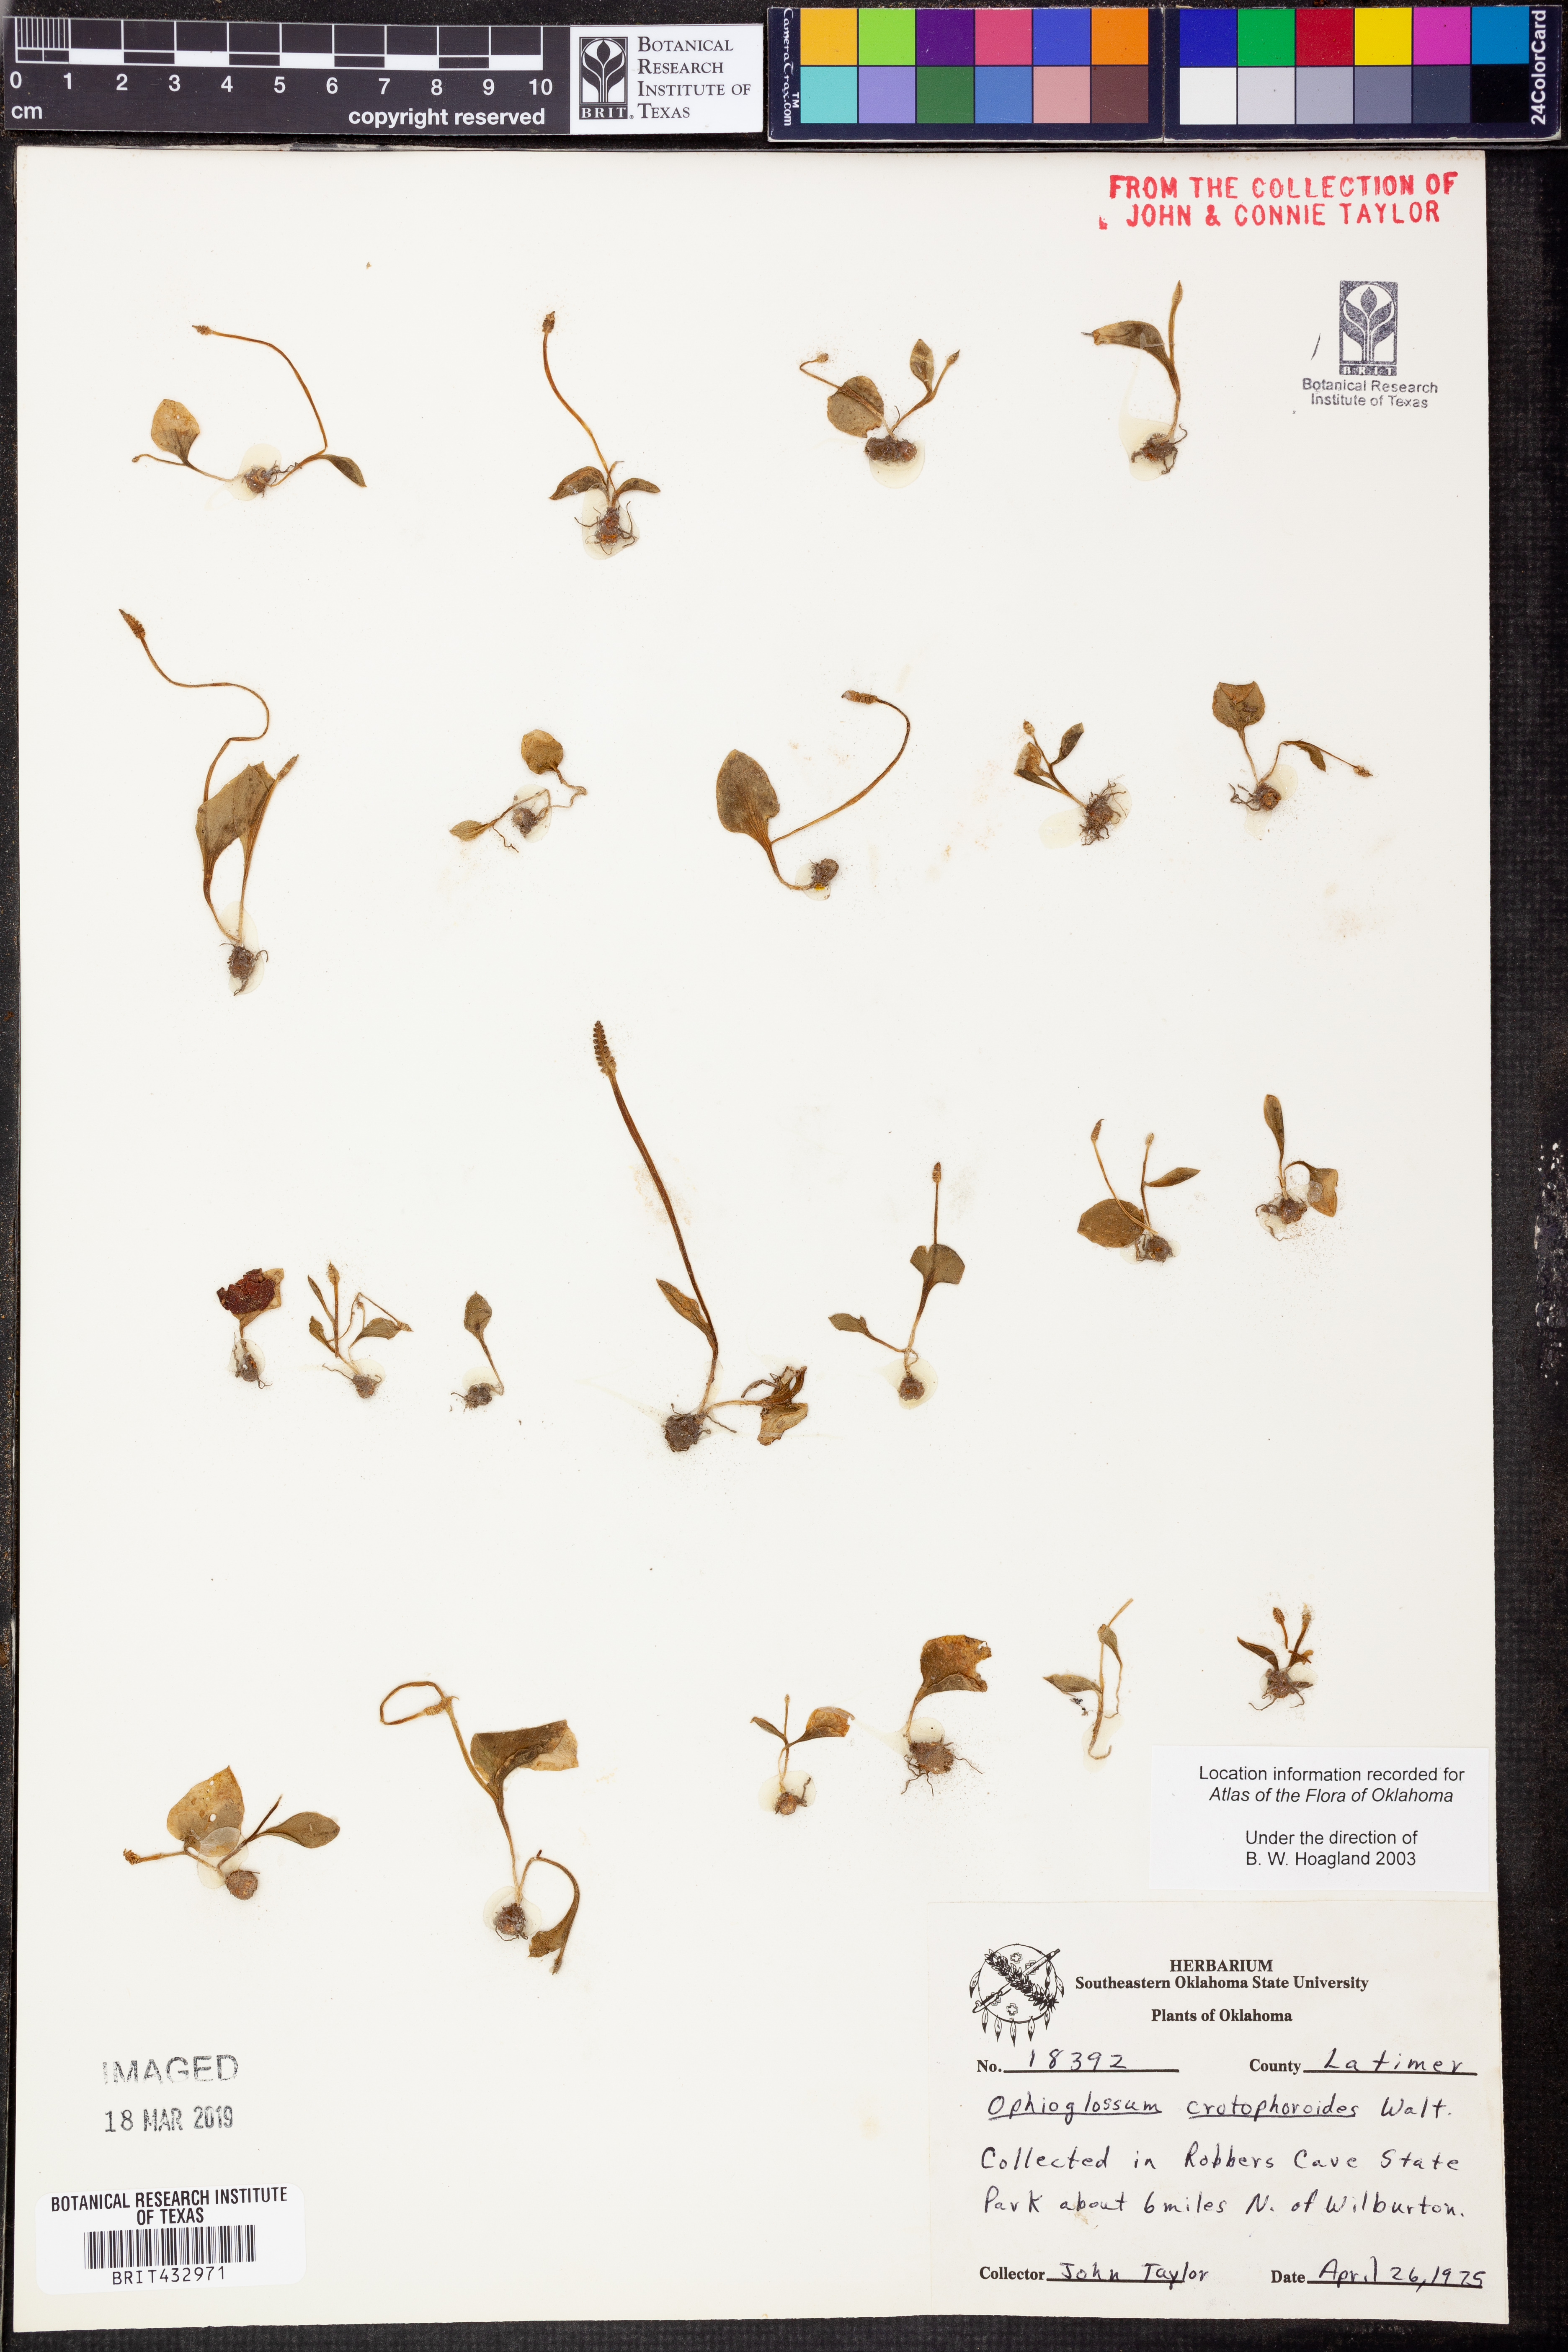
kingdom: Plantae
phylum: Tracheophyta
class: Polypodiopsida
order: Ophioglossales
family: Ophioglossaceae
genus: Ophioglossum
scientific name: Ophioglossum crotalophoroides
